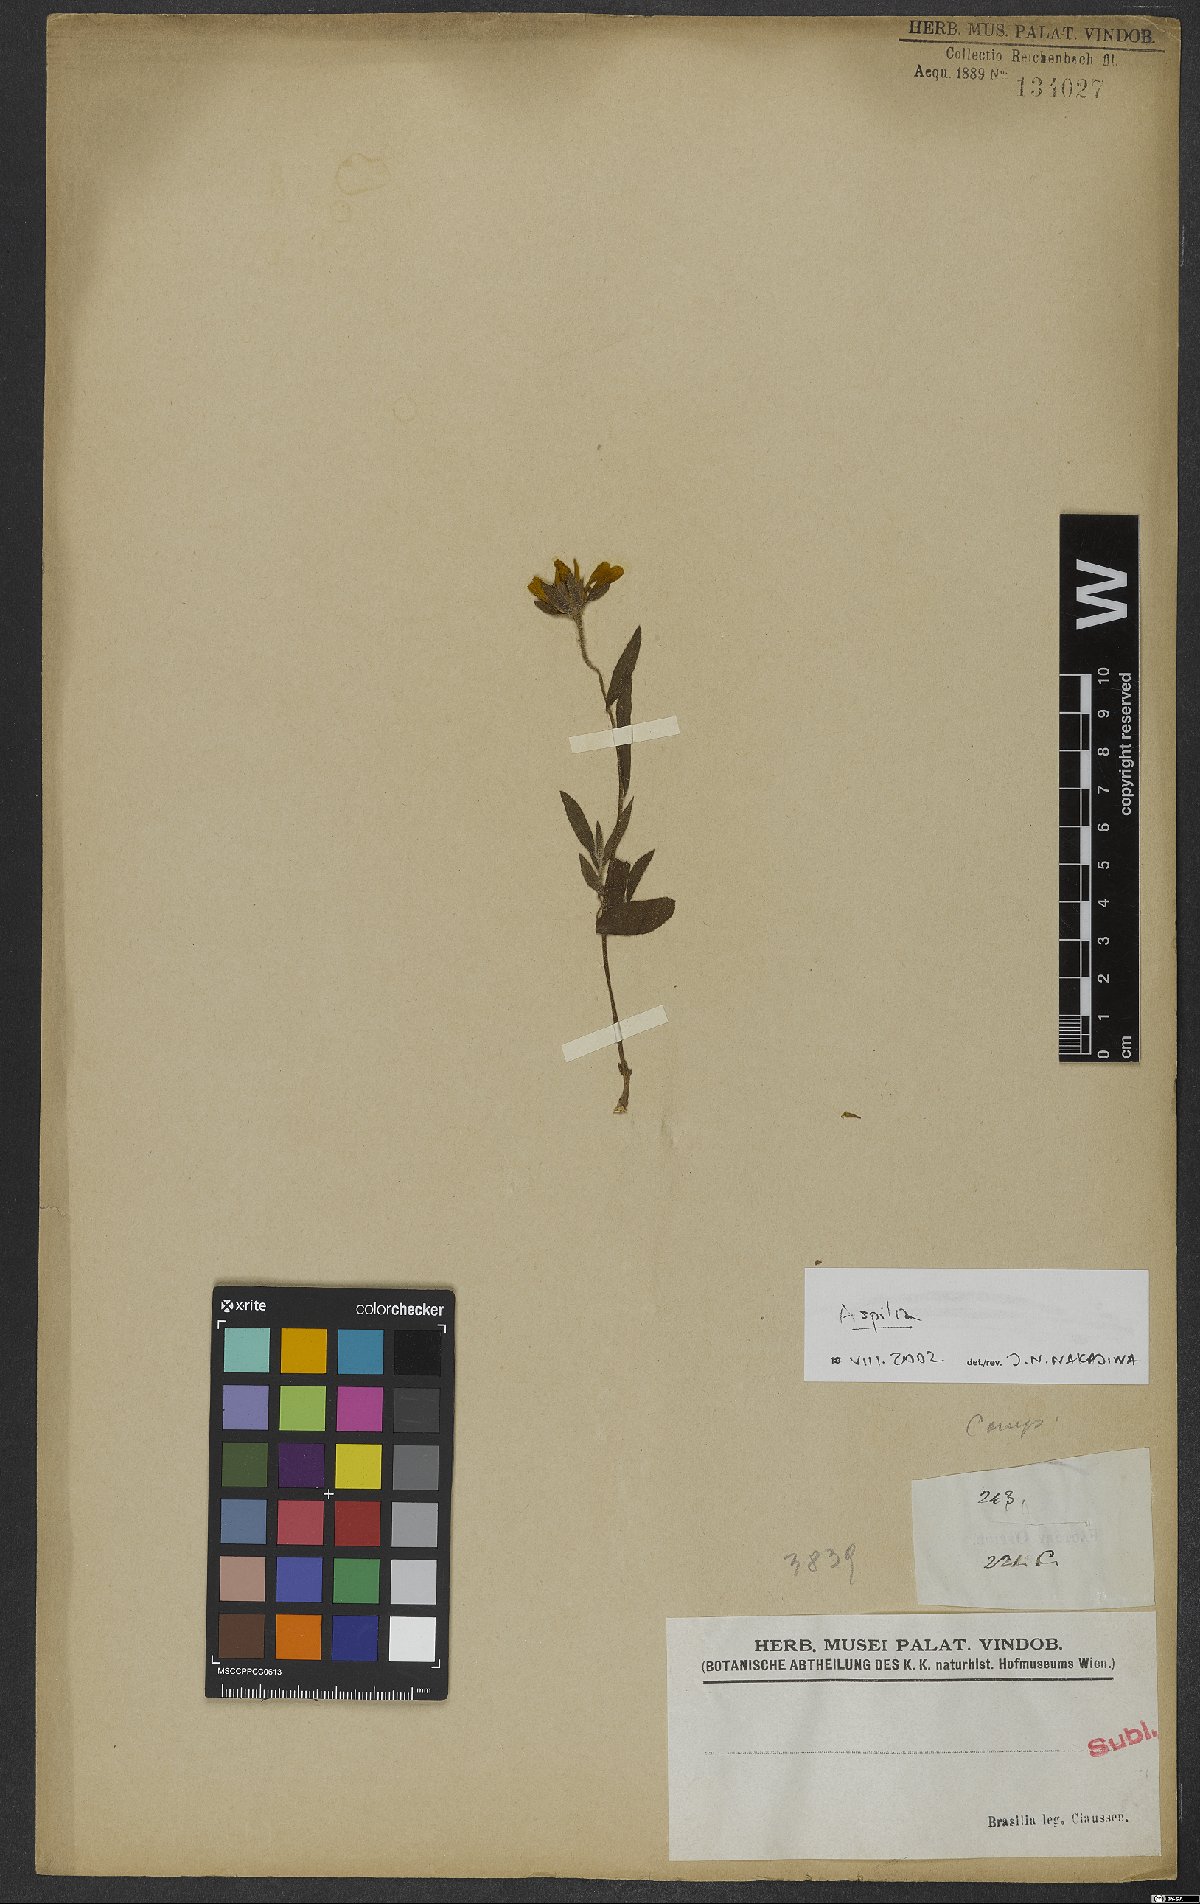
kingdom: Plantae
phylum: Tracheophyta
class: Magnoliopsida
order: Asterales
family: Asteraceae
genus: Aspilia
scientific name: Aspilia
